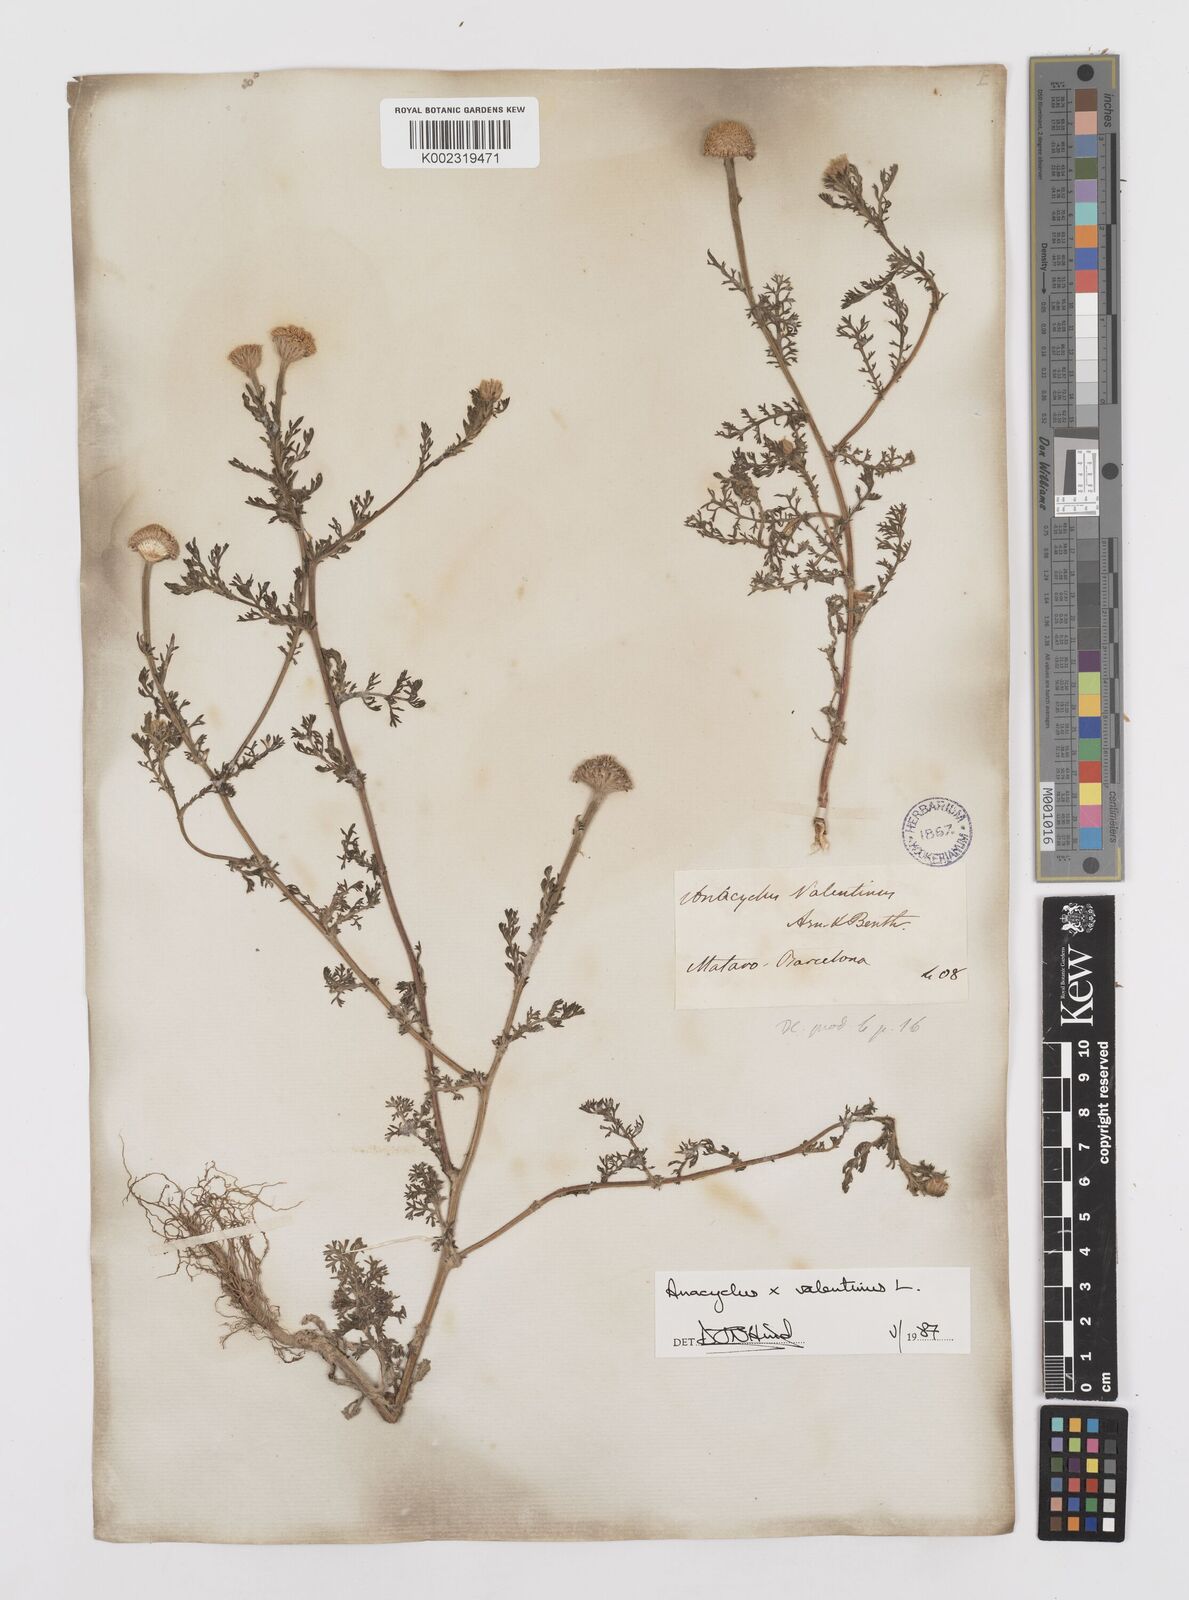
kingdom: Plantae
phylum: Tracheophyta
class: Magnoliopsida
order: Asterales
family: Asteraceae
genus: Anacyclus
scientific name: Anacyclus valentinus
